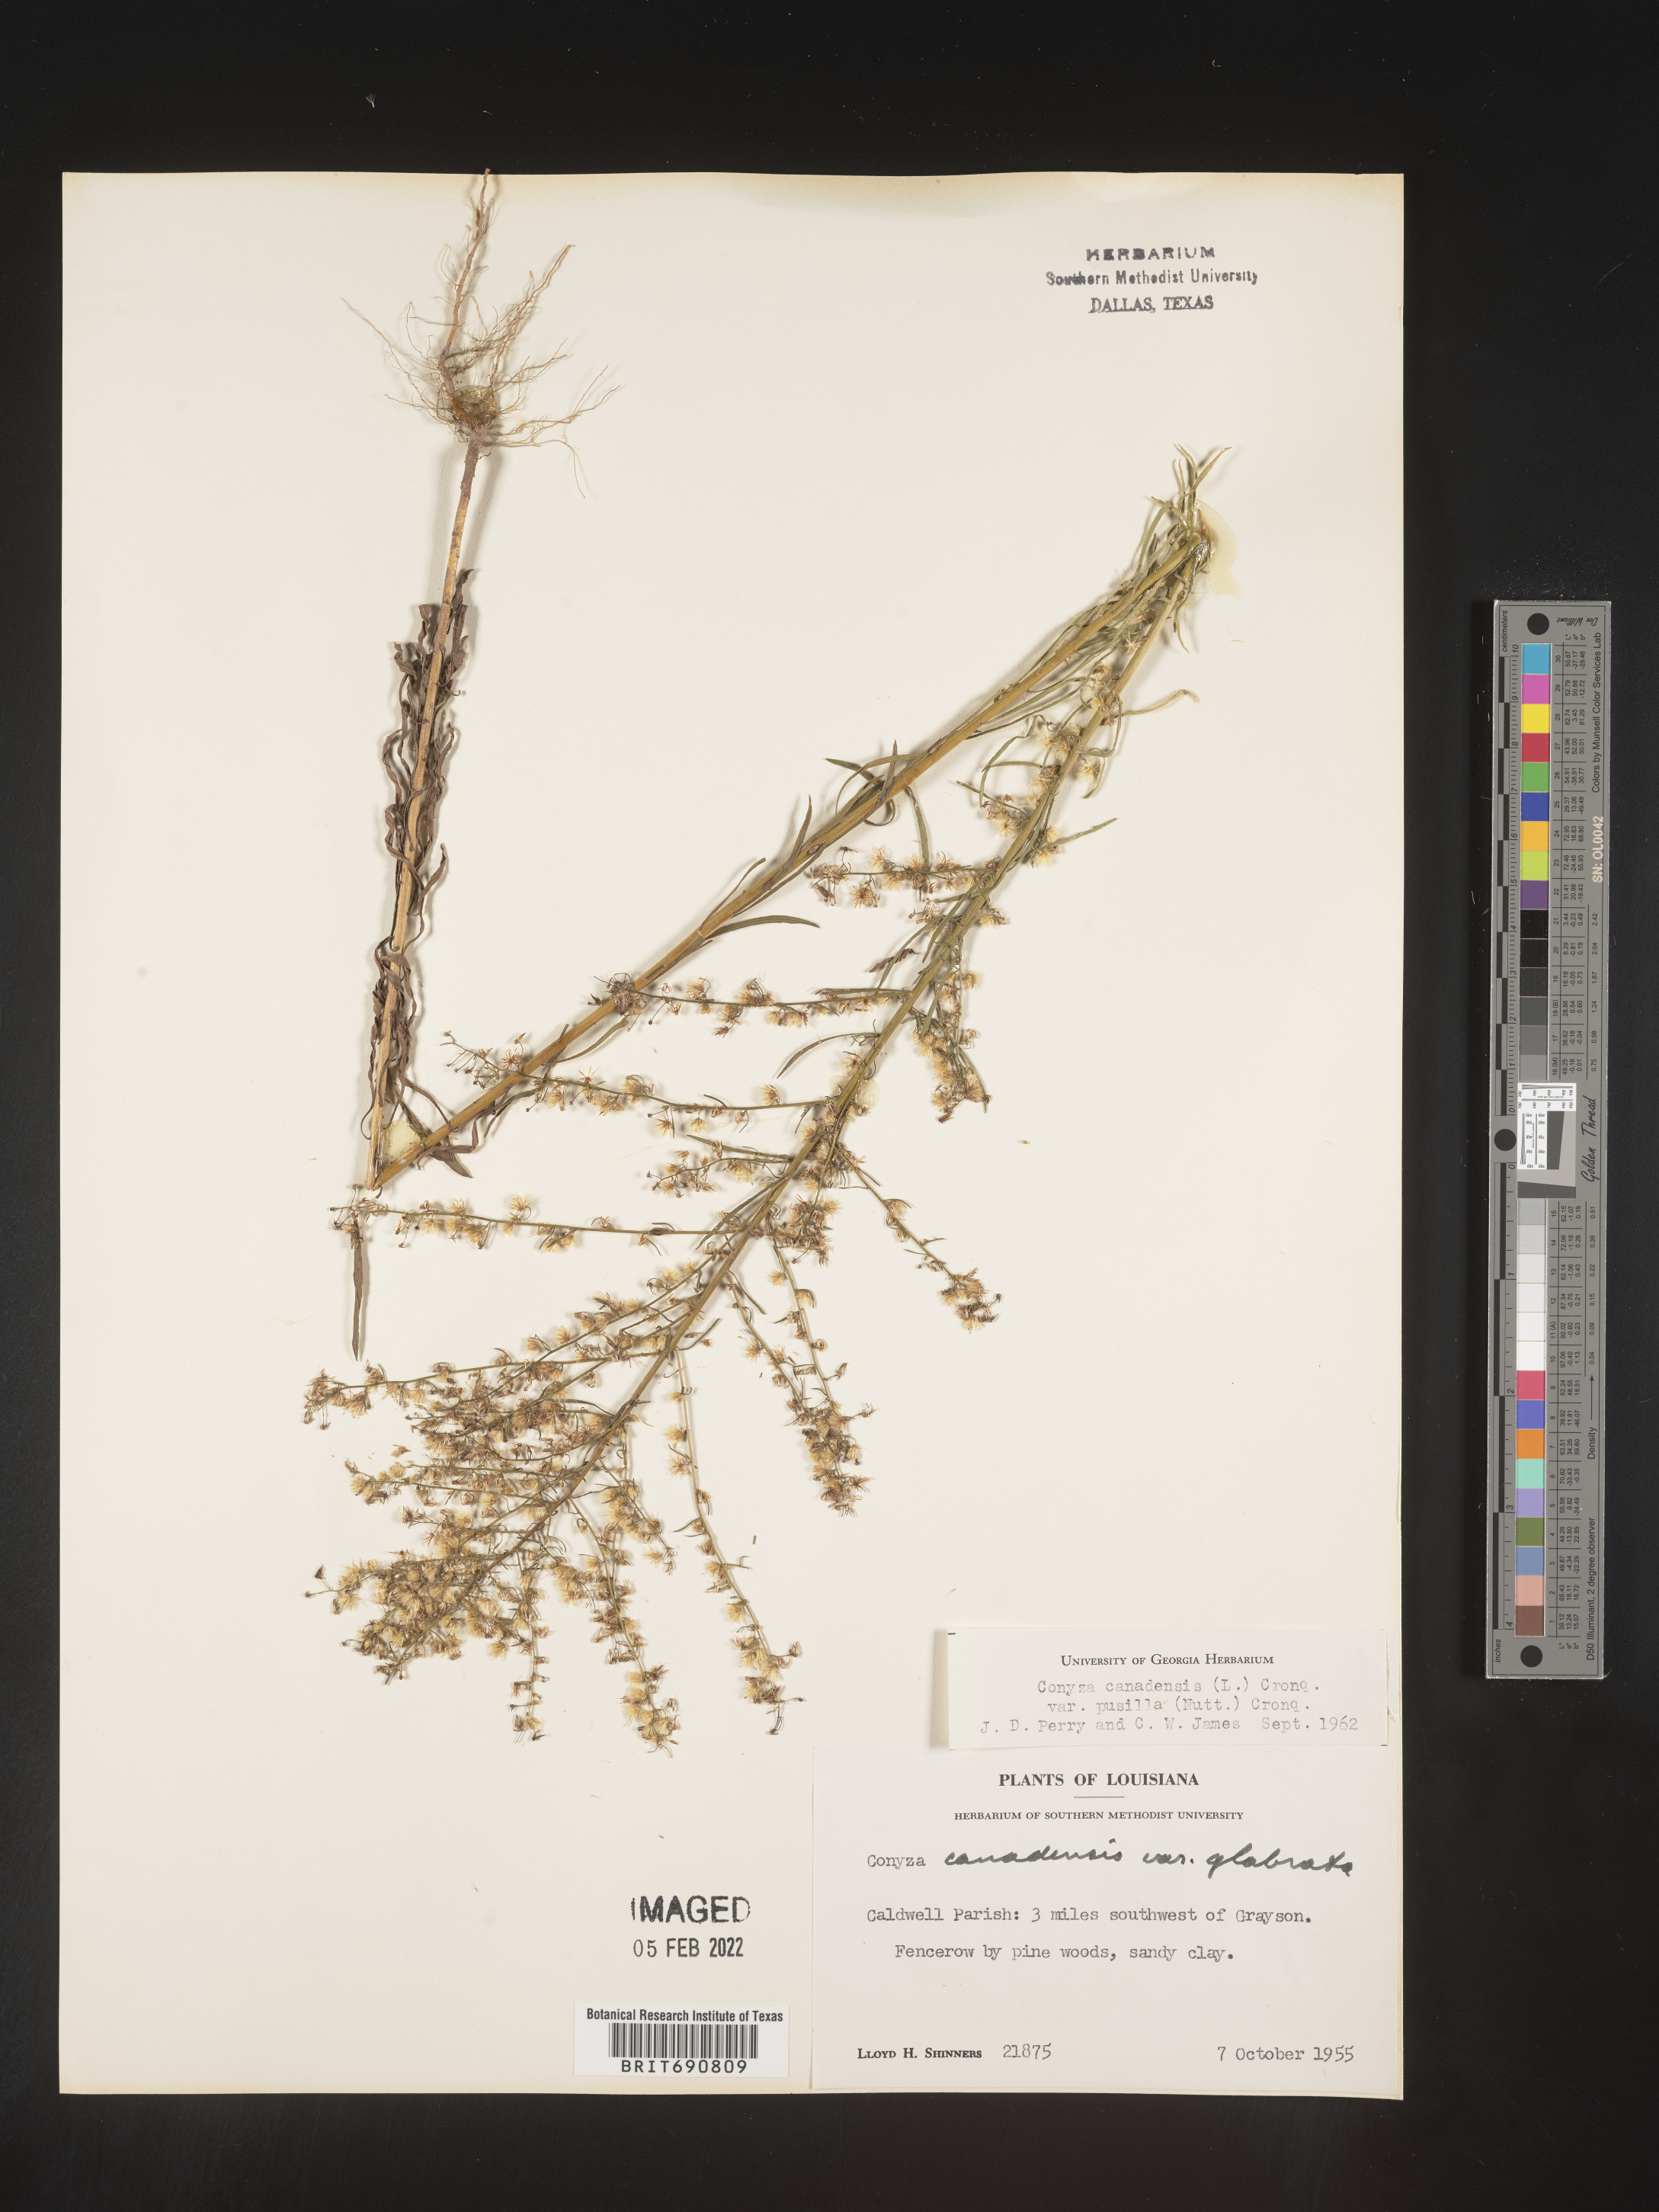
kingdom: Plantae
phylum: Tracheophyta
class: Magnoliopsida
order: Asterales
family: Asteraceae
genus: Erigeron
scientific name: Erigeron canadensis
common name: Canadian fleabane
